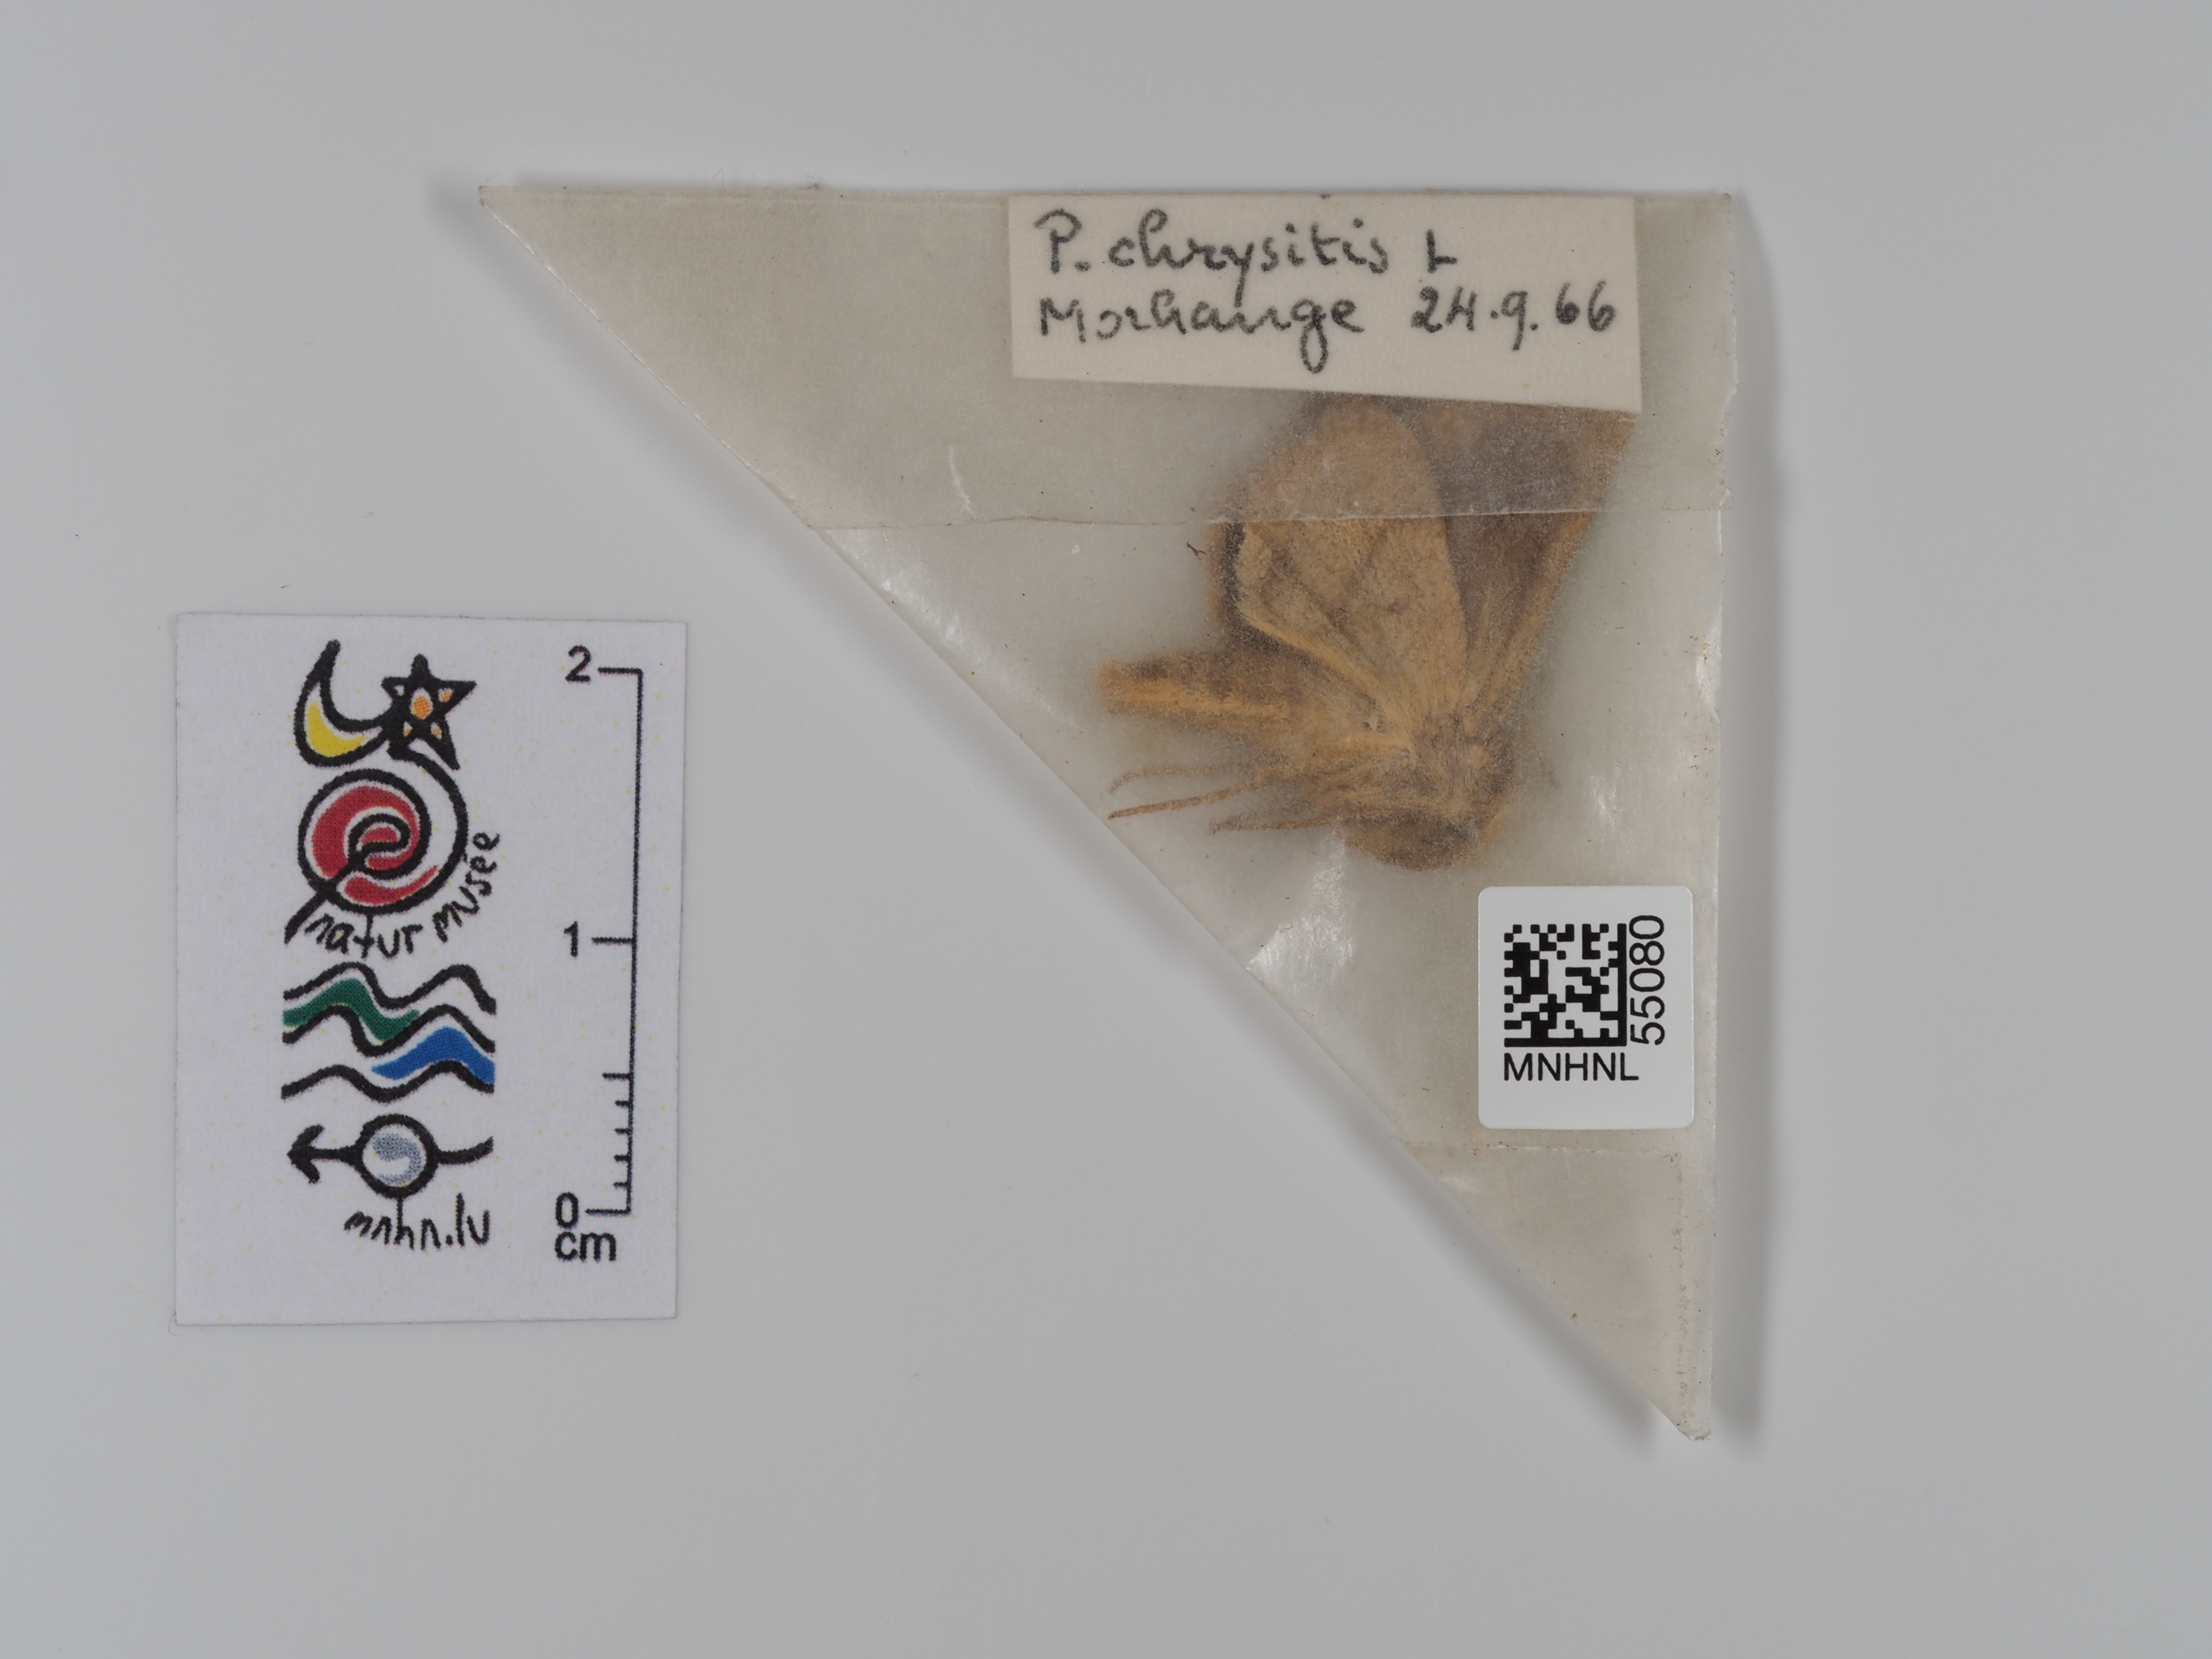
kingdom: Animalia
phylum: Arthropoda
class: Insecta
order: Lepidoptera
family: Noctuidae
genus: Diachrysia
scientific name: Diachrysia chrysitis
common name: Burnished brass
